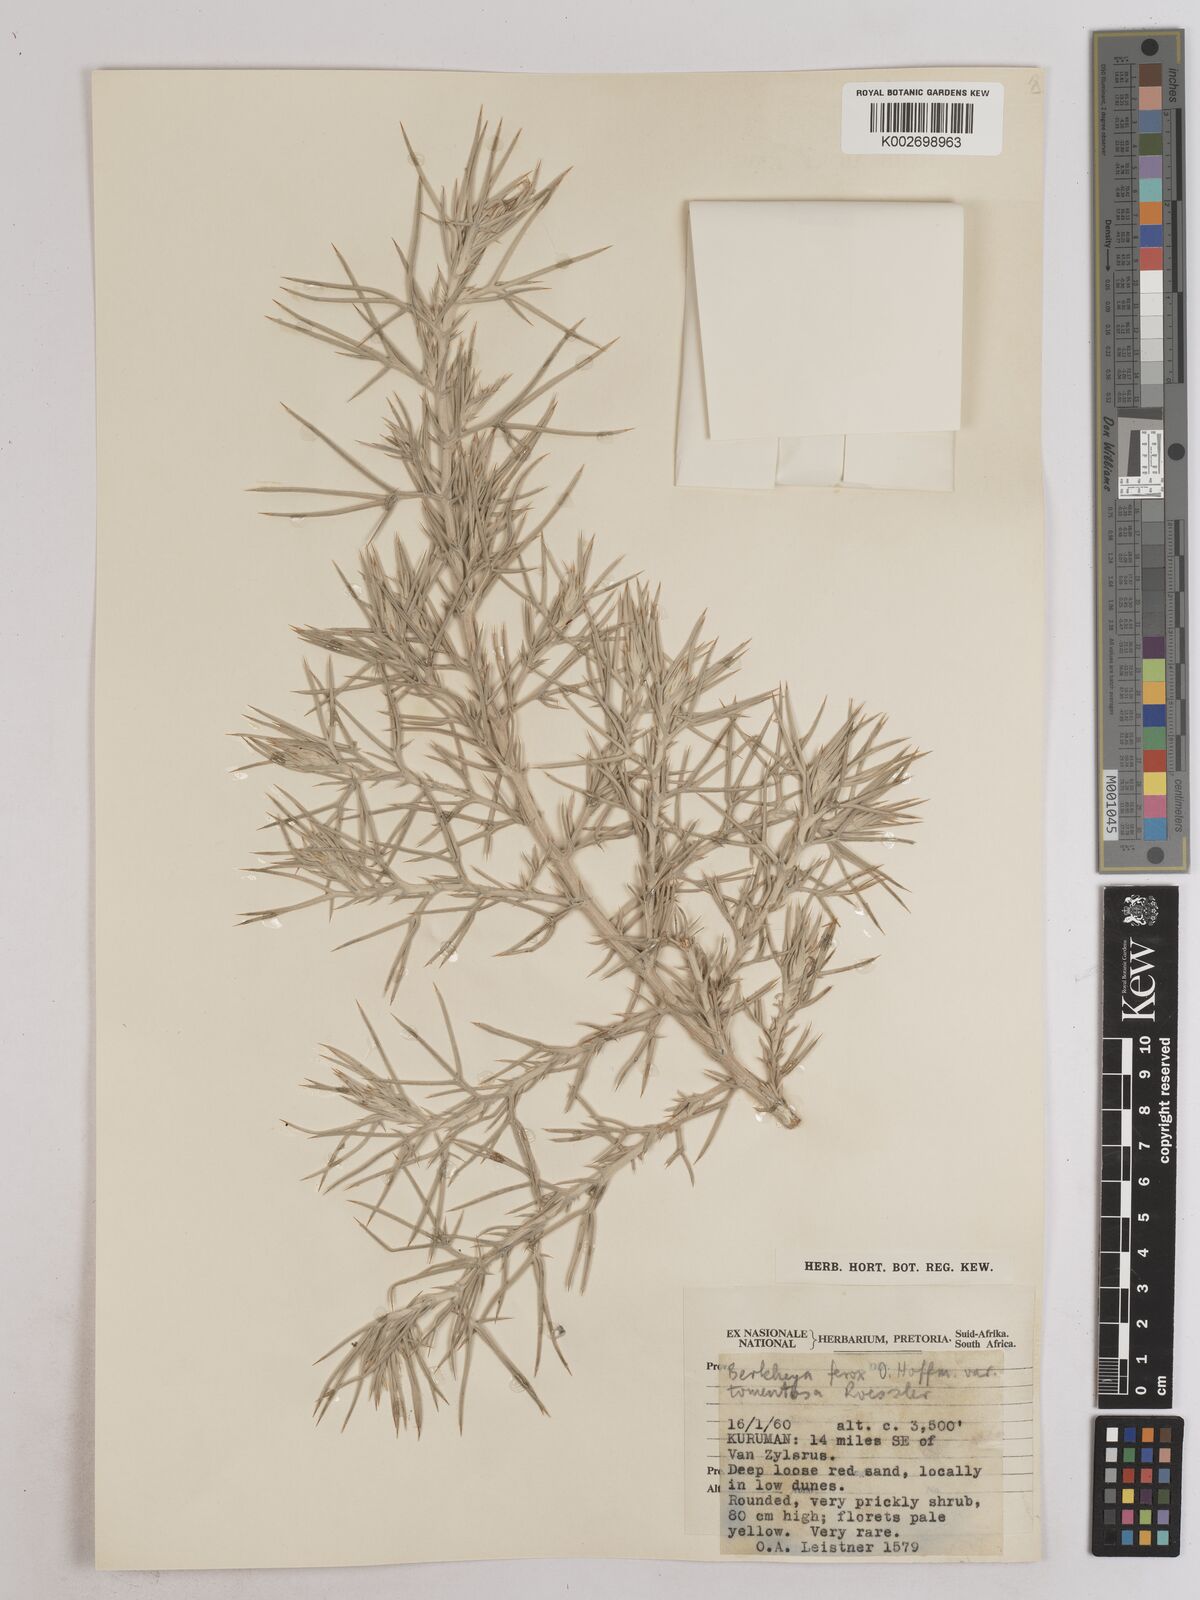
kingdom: Plantae
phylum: Tracheophyta
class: Magnoliopsida
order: Asterales
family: Asteraceae
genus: Berkheya
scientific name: Berkheya ferox
